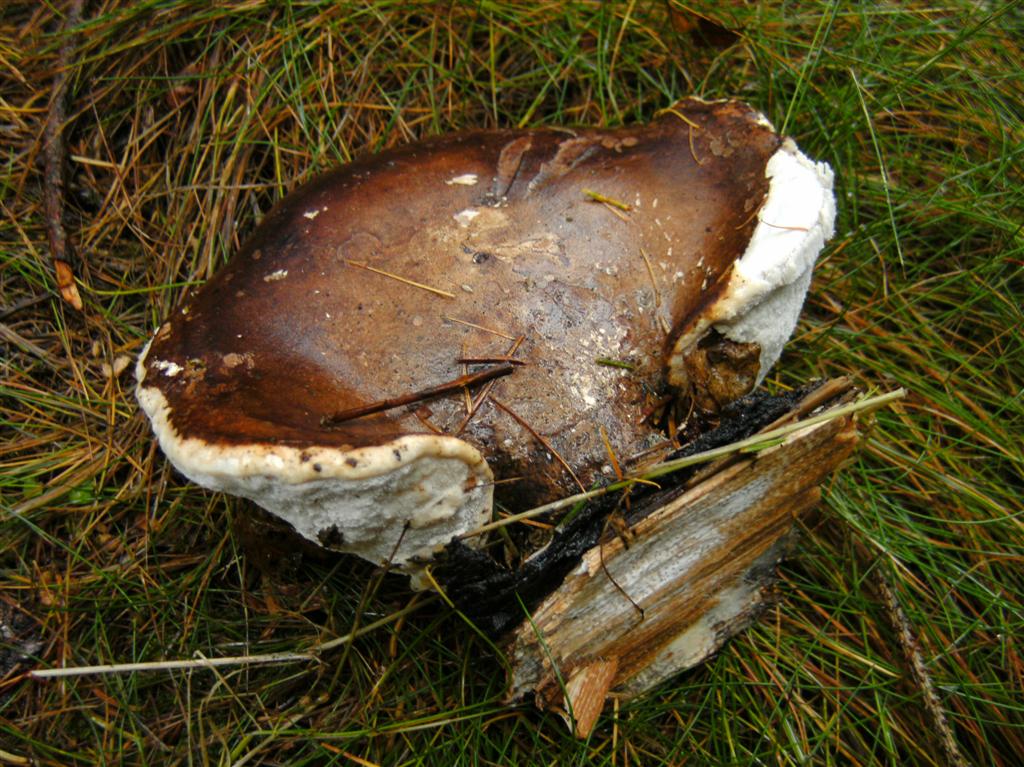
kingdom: Fungi
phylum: Basidiomycota
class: Agaricomycetes
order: Polyporales
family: Fomitopsidaceae
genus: Fomitopsis
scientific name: Fomitopsis betulina
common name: birkeporesvamp
